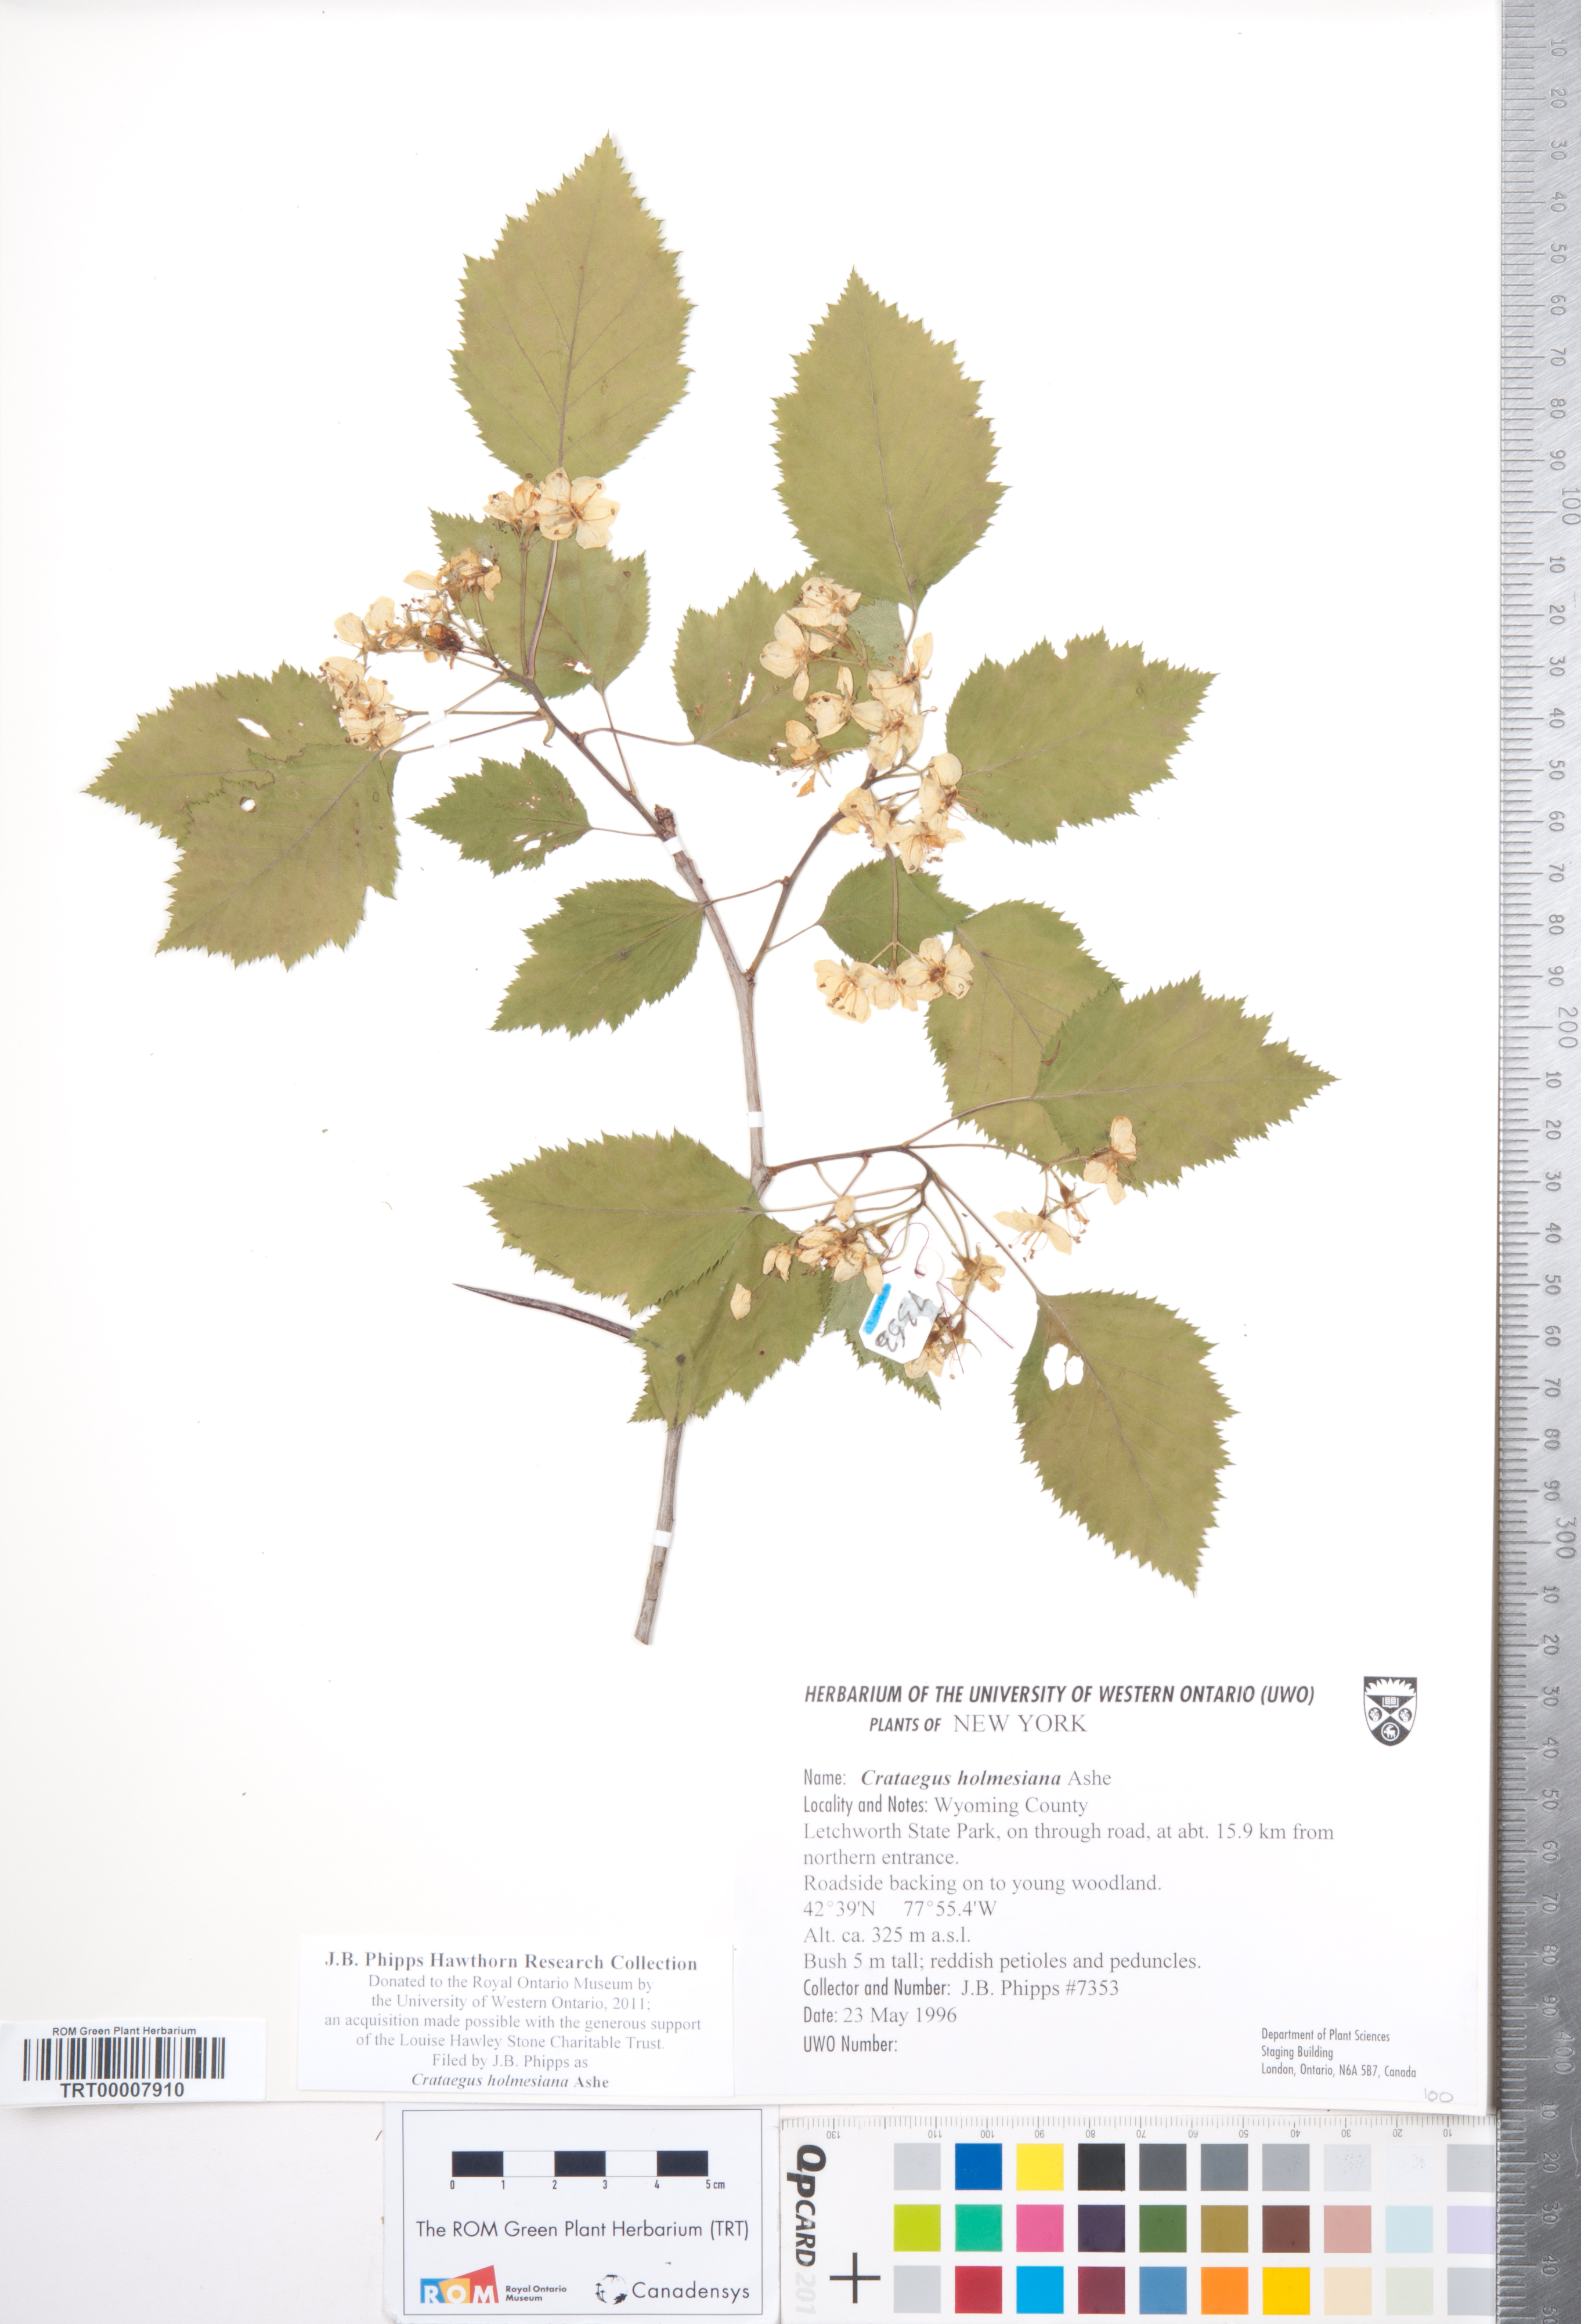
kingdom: Plantae
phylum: Tracheophyta
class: Magnoliopsida
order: Rosales
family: Rosaceae
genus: Crataegus
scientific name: Crataegus holmesiana
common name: Holmes' hawthorn
